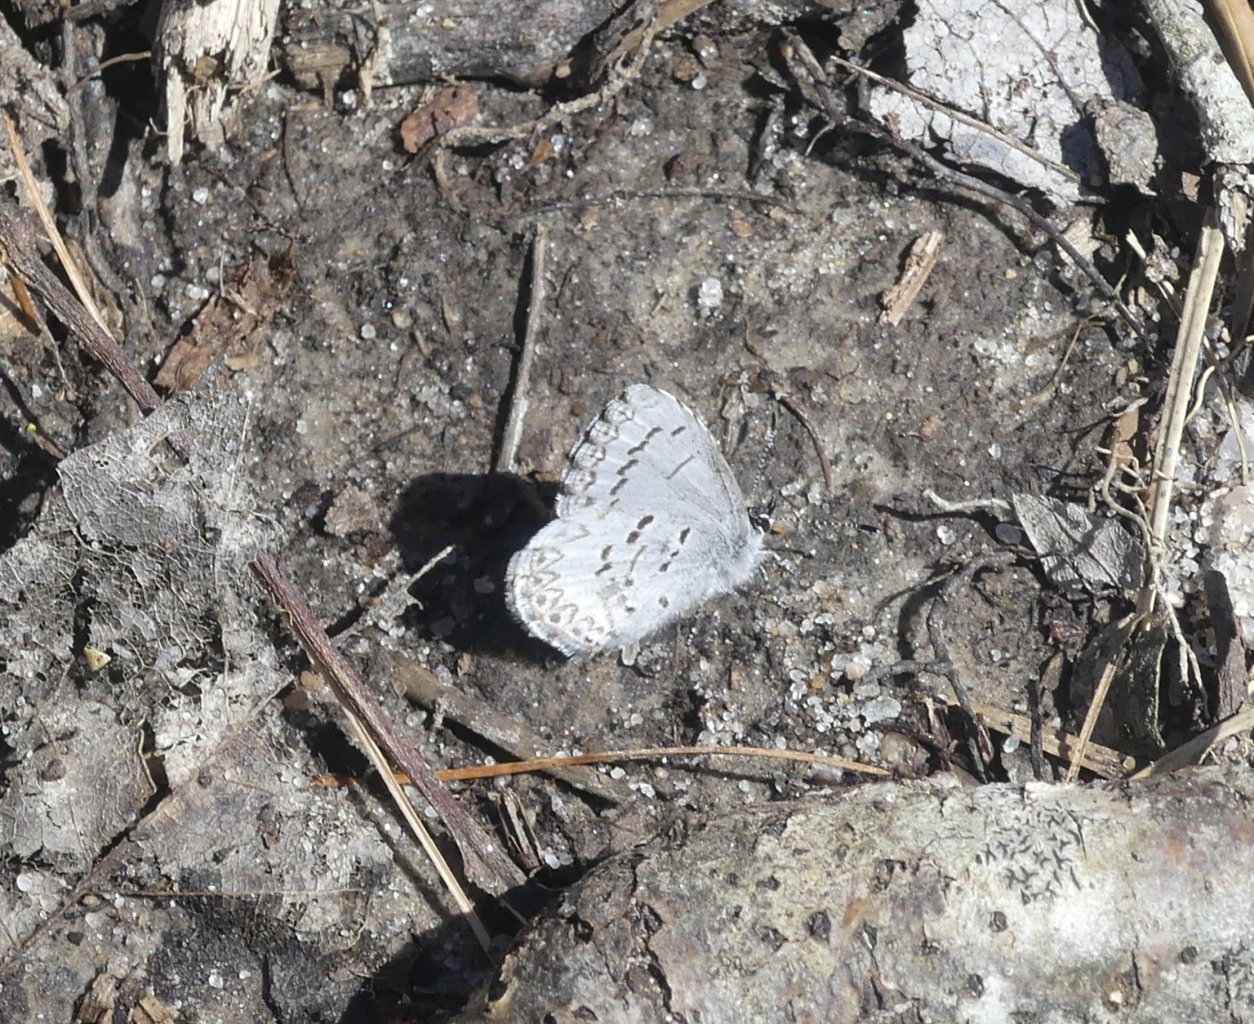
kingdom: Animalia
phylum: Arthropoda
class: Insecta
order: Lepidoptera
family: Lycaenidae
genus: Celastrina
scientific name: Celastrina ladon
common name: Spring Azure
